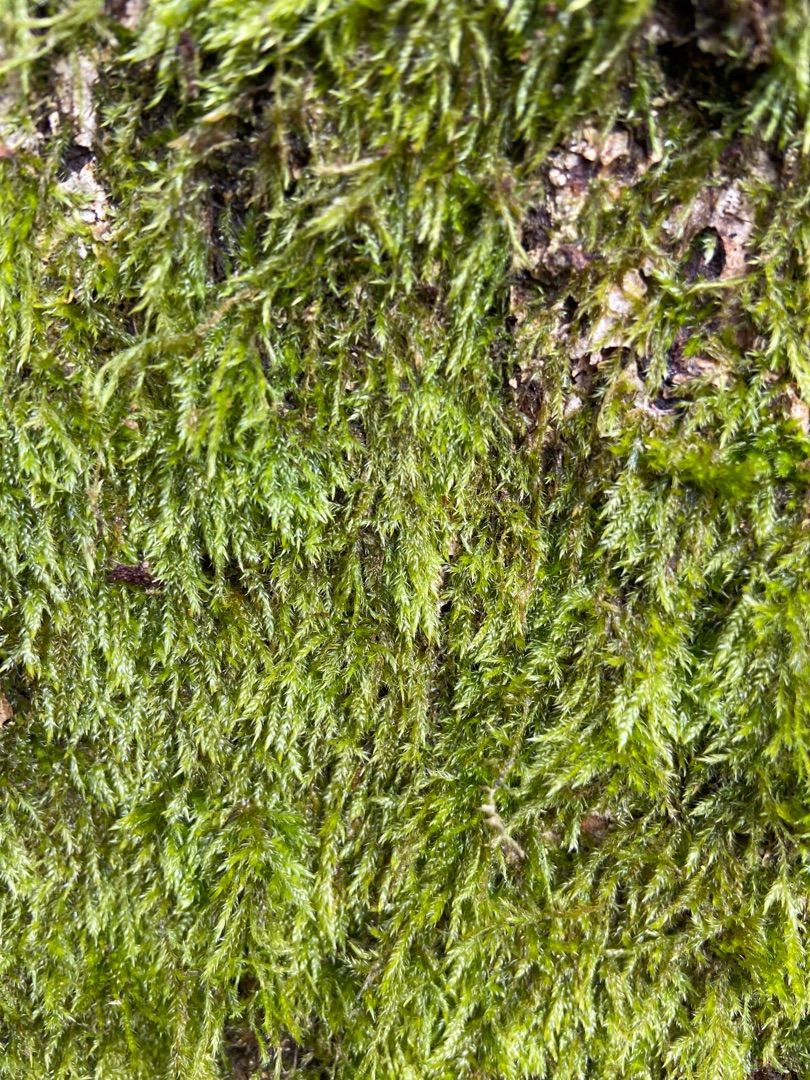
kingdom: Plantae
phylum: Bryophyta
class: Bryopsida
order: Hypnales
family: Hypnaceae
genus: Hypnum
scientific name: Hypnum
